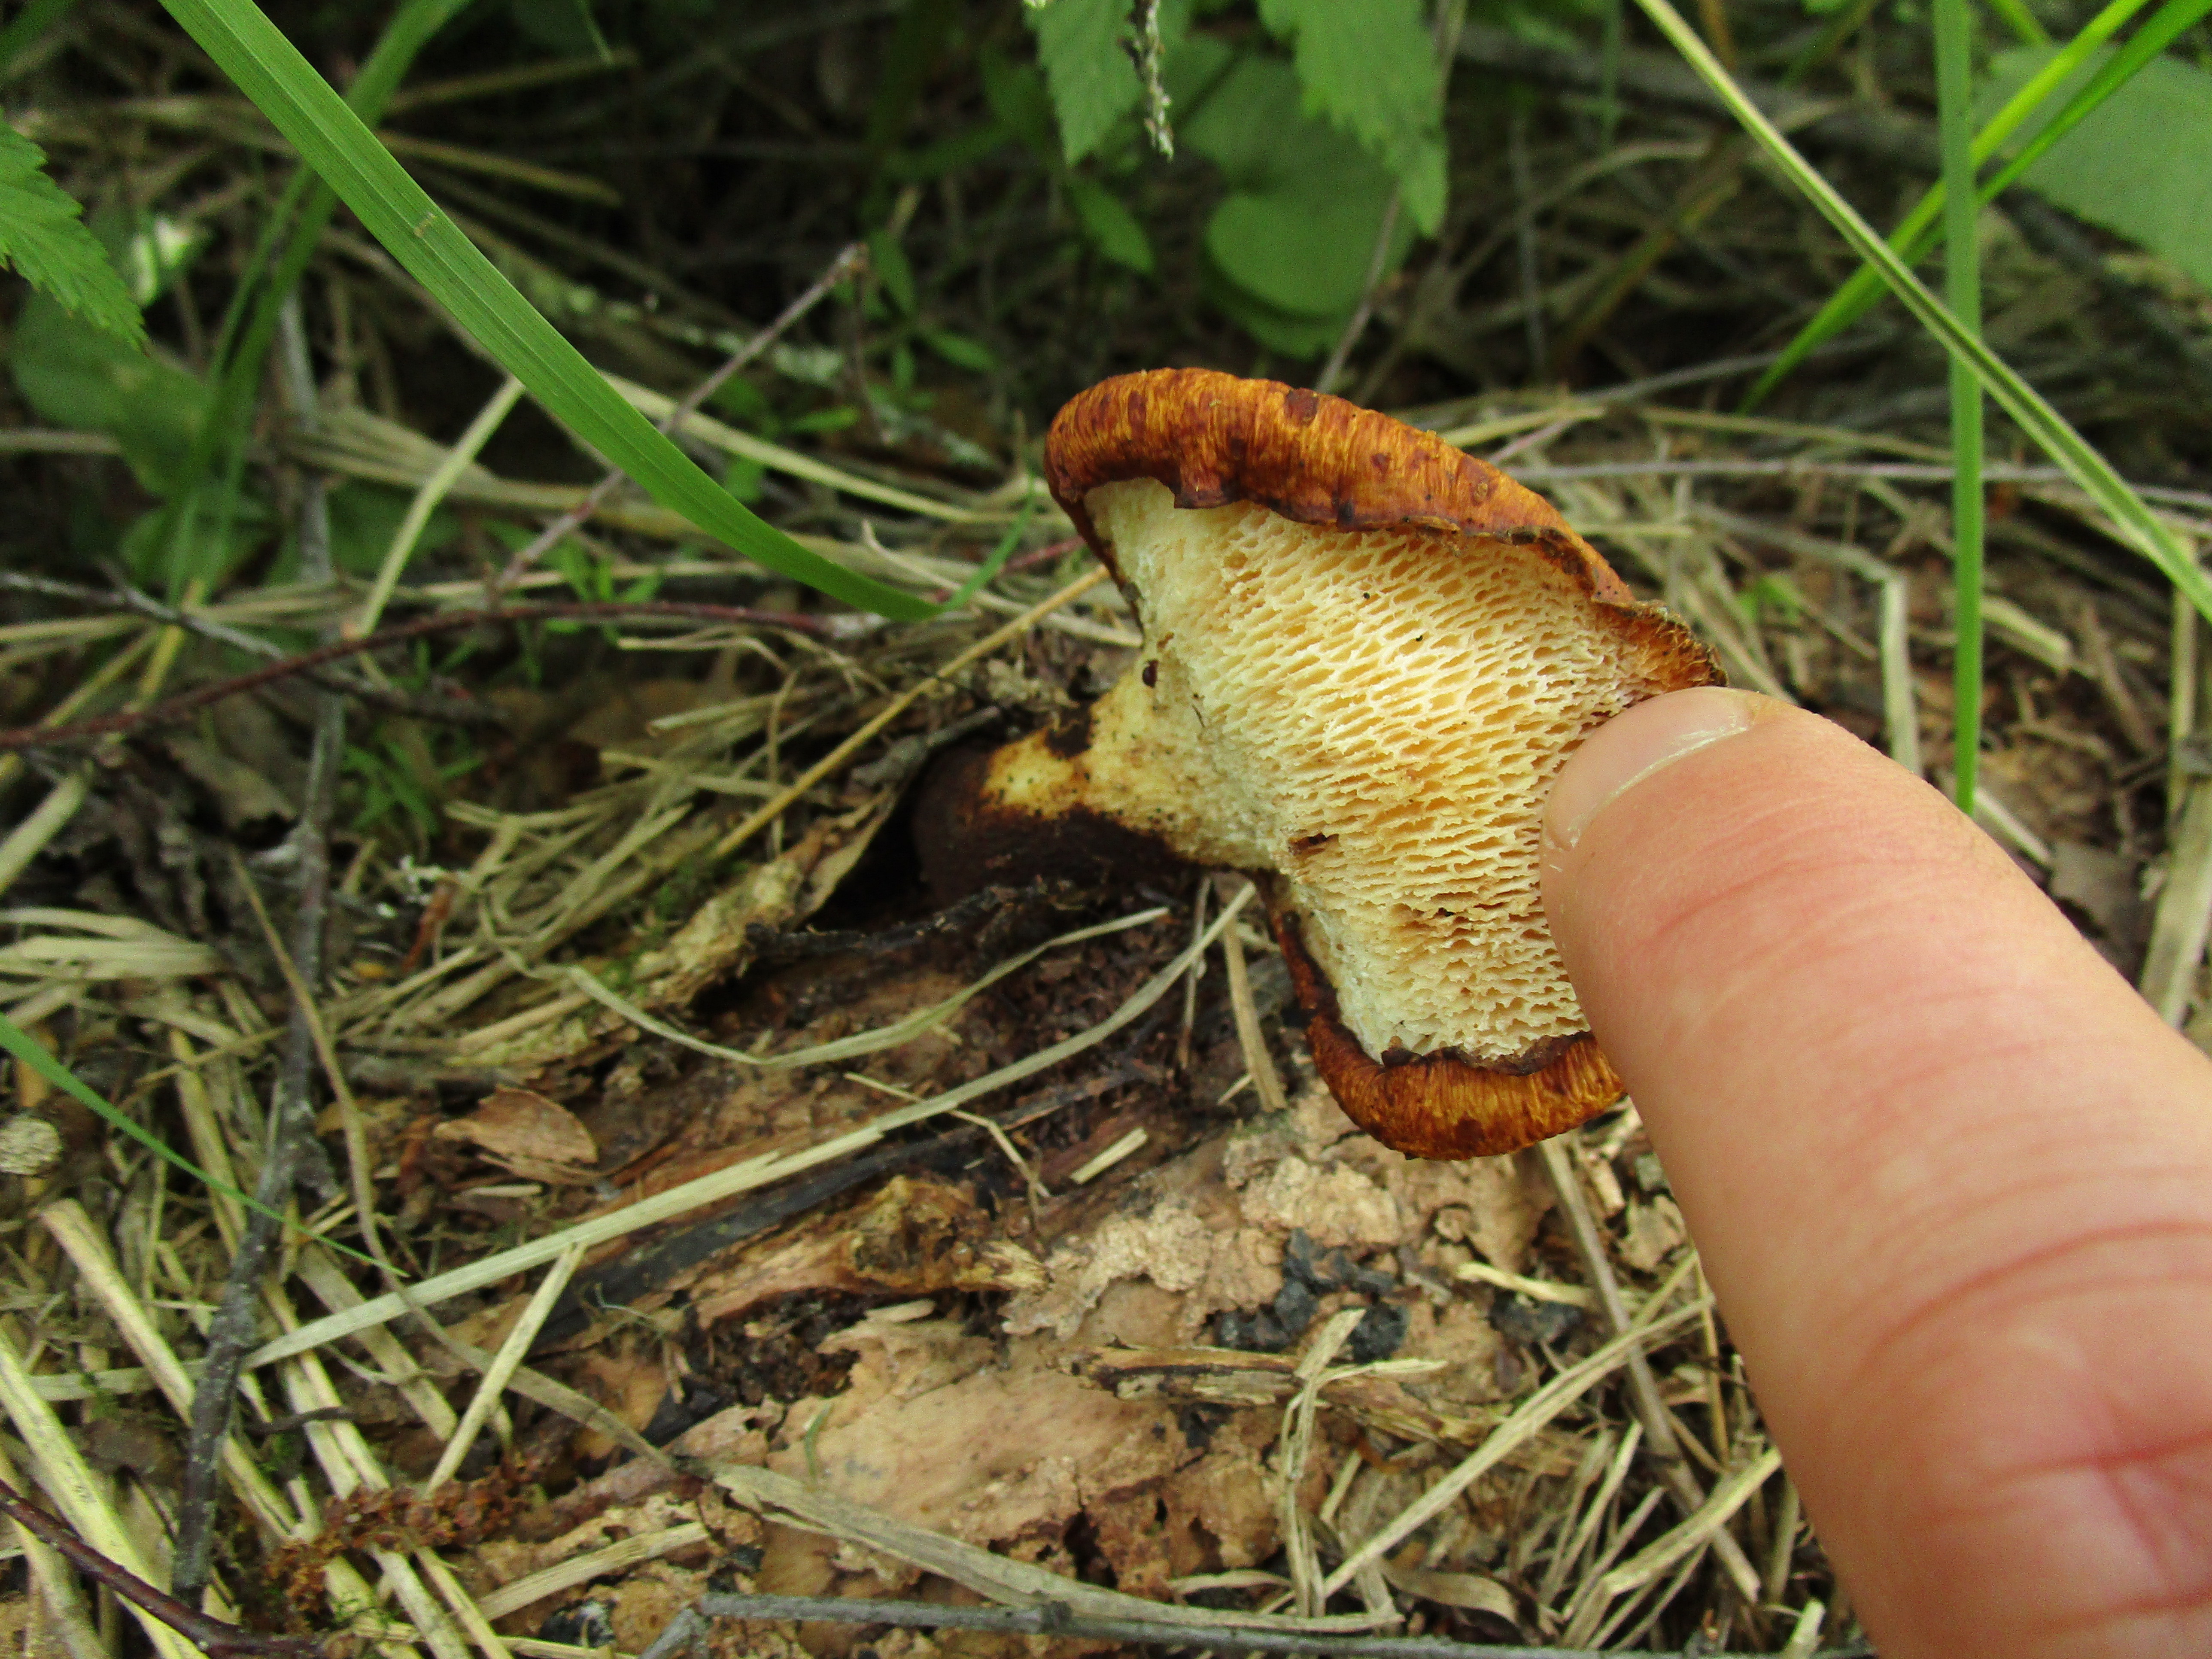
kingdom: Fungi
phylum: Basidiomycota
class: Agaricomycetes
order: Polyporales
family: Polyporaceae
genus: Cerioporus
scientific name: Cerioporus squamosus
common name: Dryad's saddle
